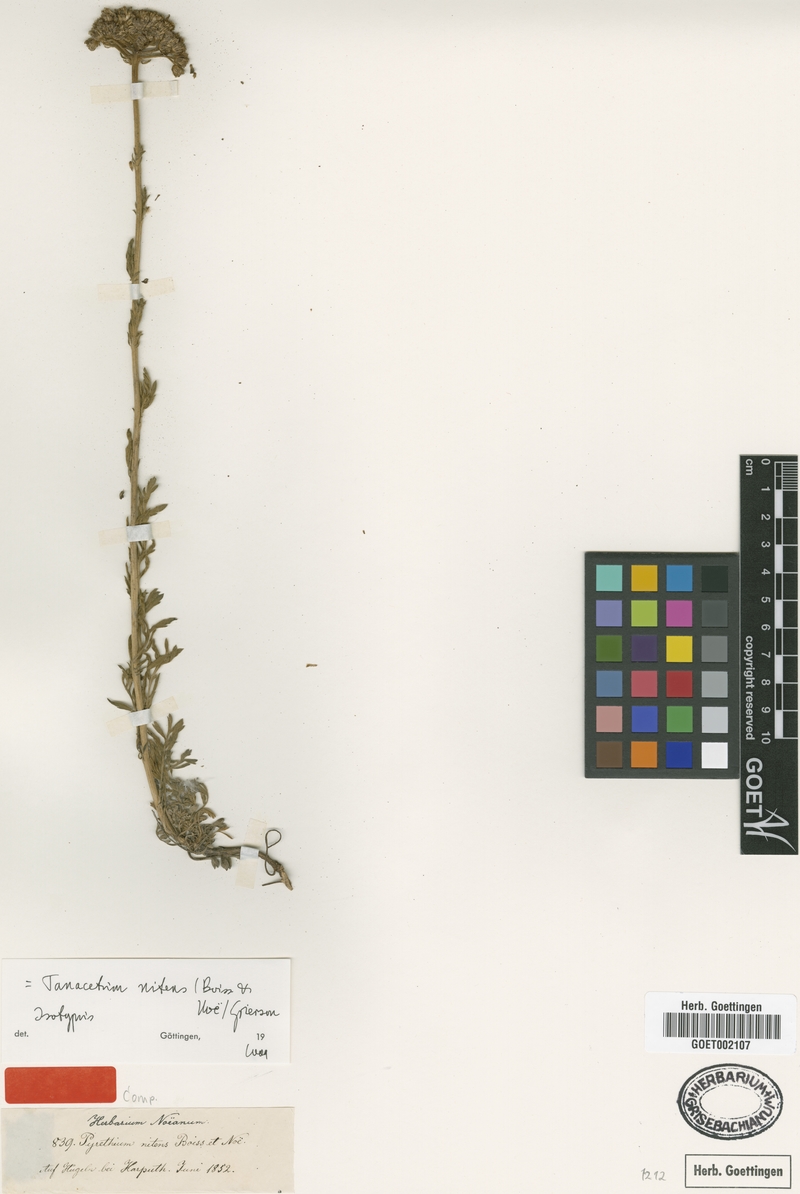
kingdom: Plantae
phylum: Tracheophyta
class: Magnoliopsida
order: Asterales
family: Asteraceae
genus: Tanacetum
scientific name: Tanacetum nitens
